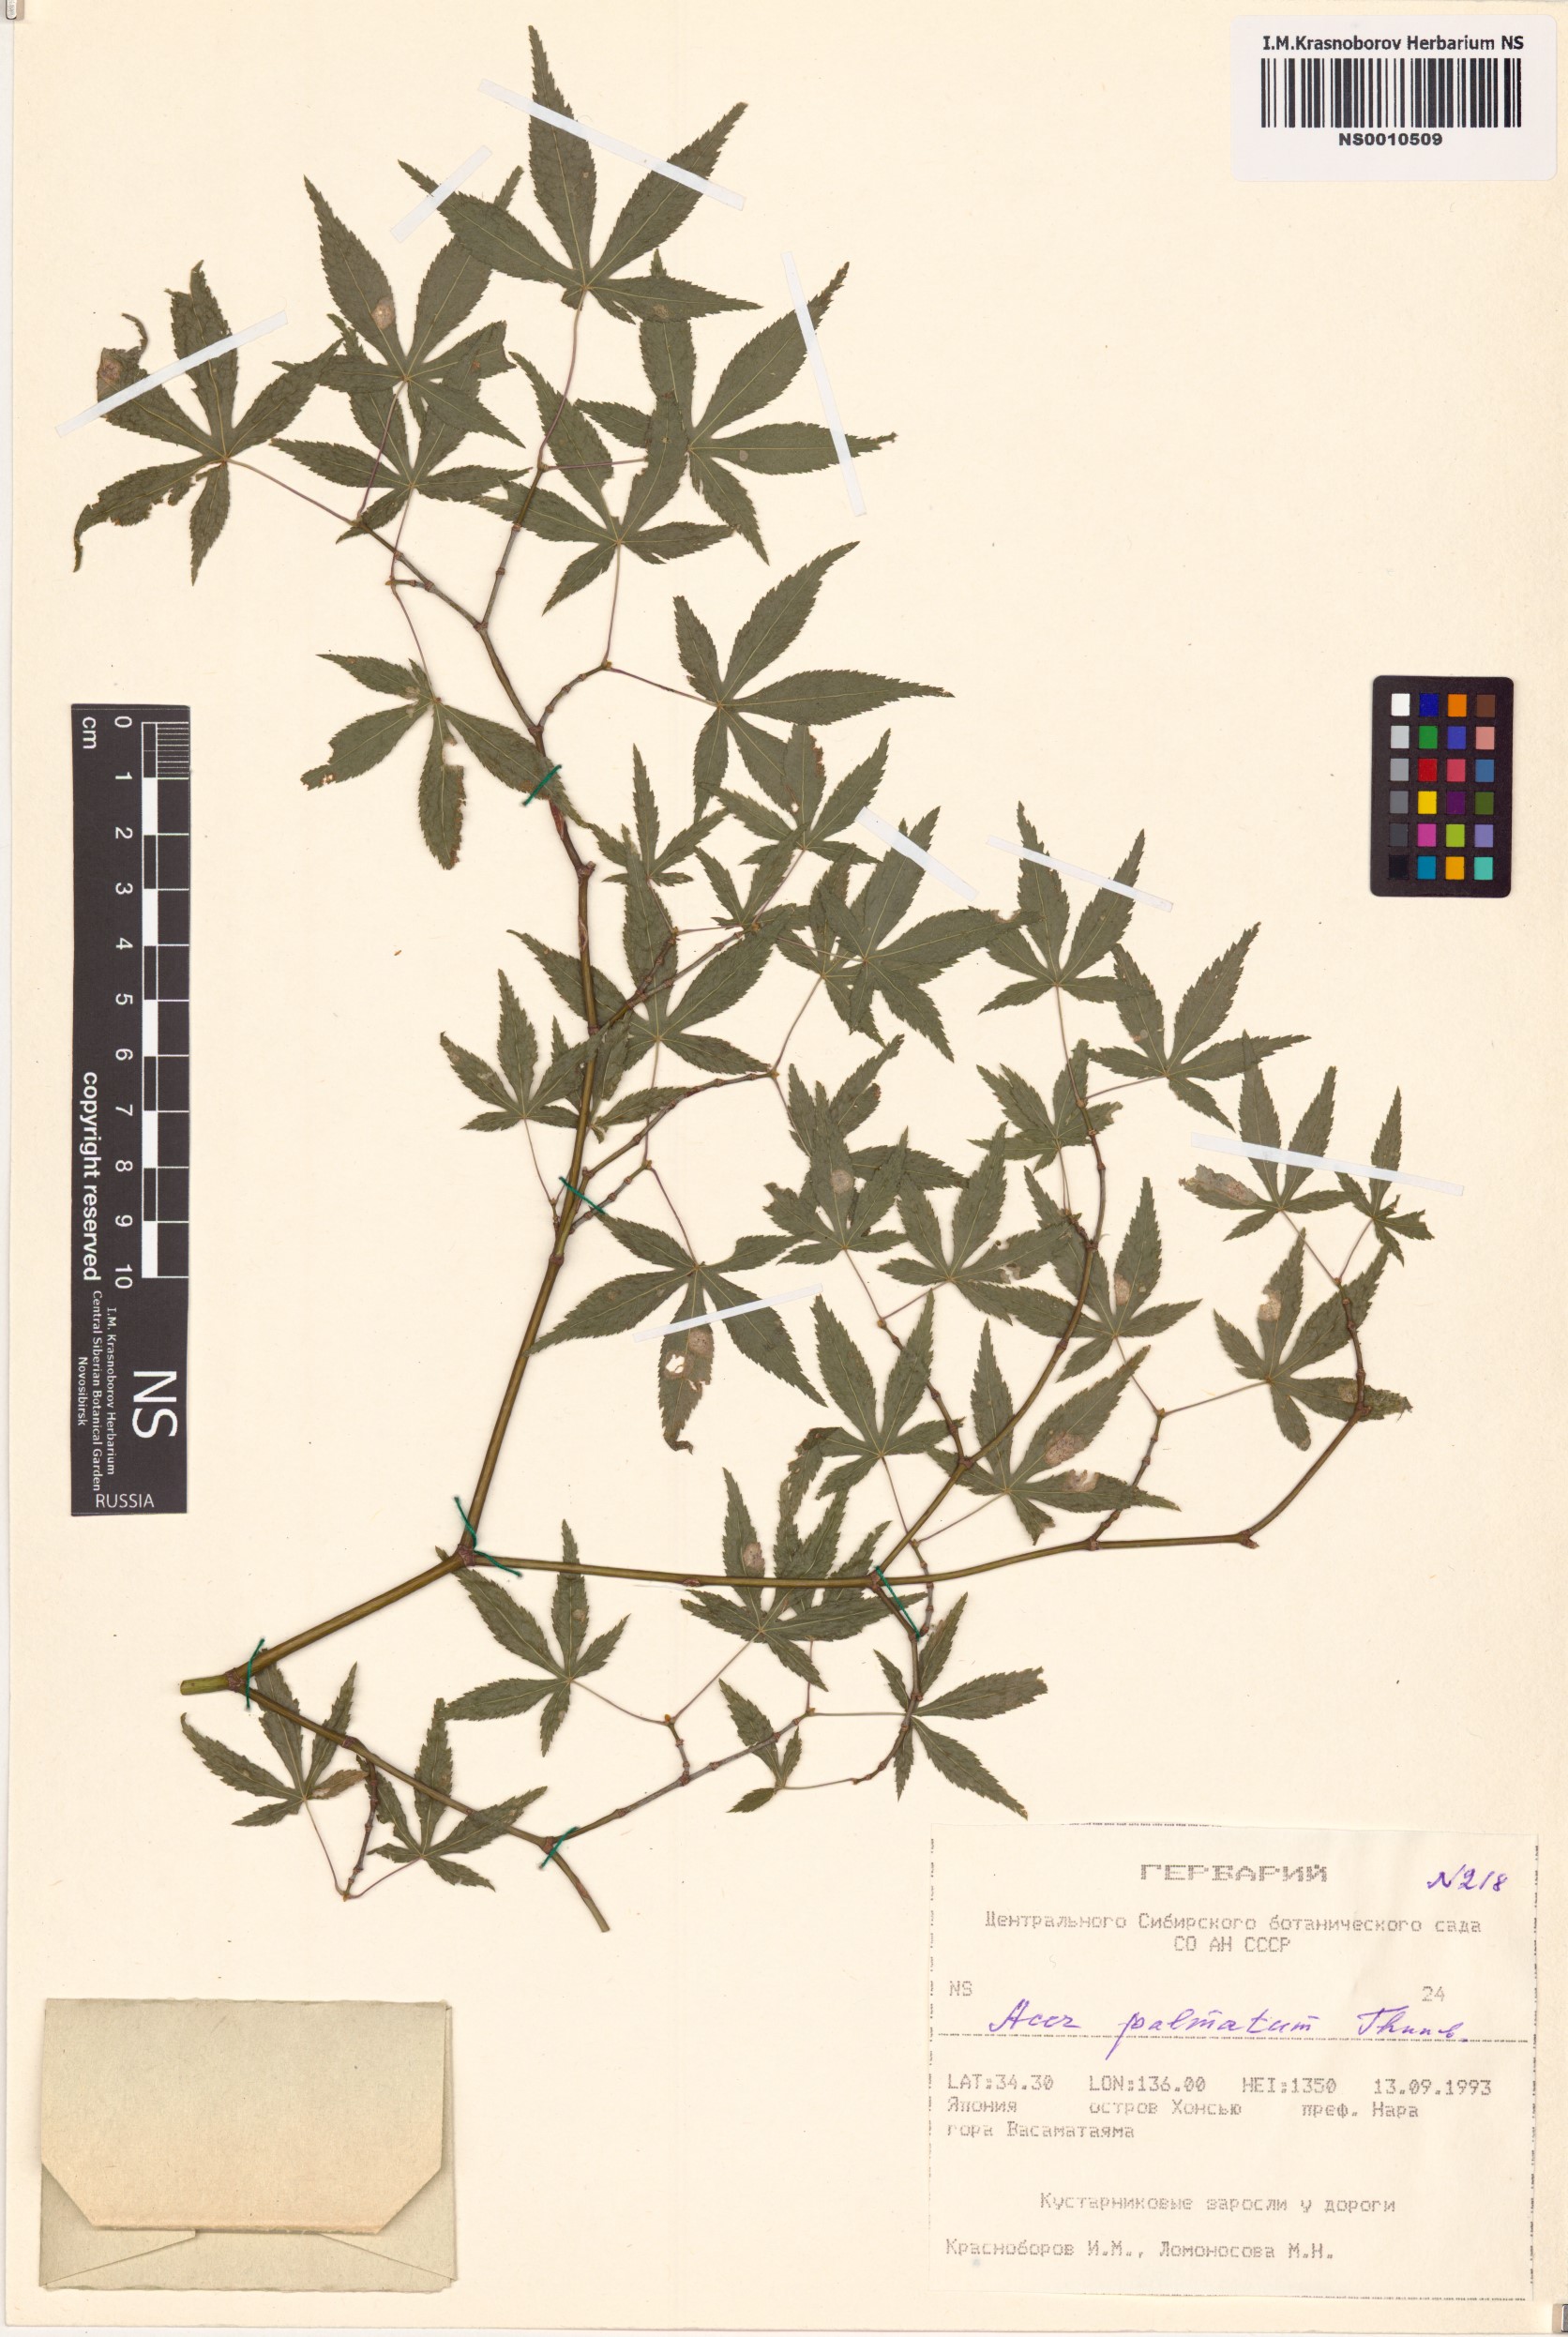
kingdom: Plantae
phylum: Tracheophyta
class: Magnoliopsida
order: Sapindales
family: Sapindaceae
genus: Acer
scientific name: Acer palmatum
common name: Japanese maple
